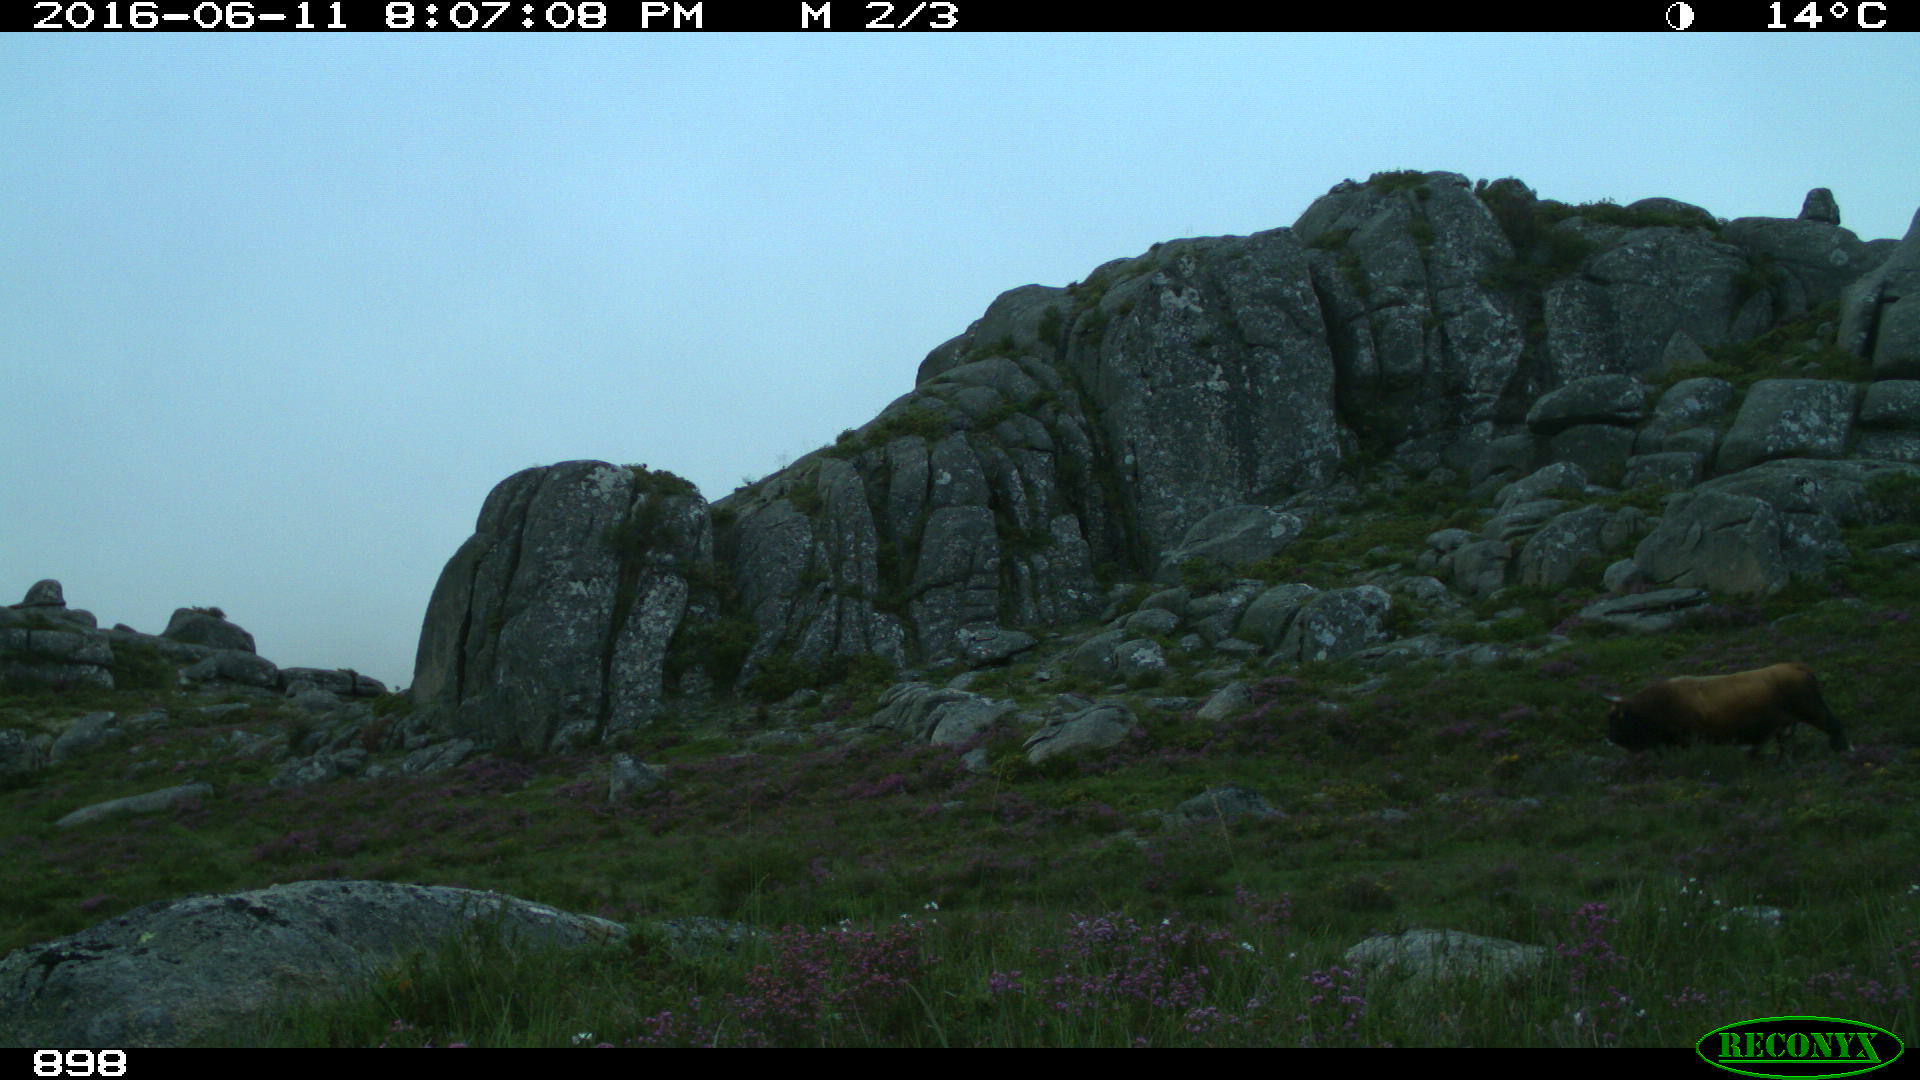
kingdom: Animalia
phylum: Chordata
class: Mammalia
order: Artiodactyla
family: Bovidae
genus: Bos
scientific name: Bos taurus
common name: Domesticated cattle
